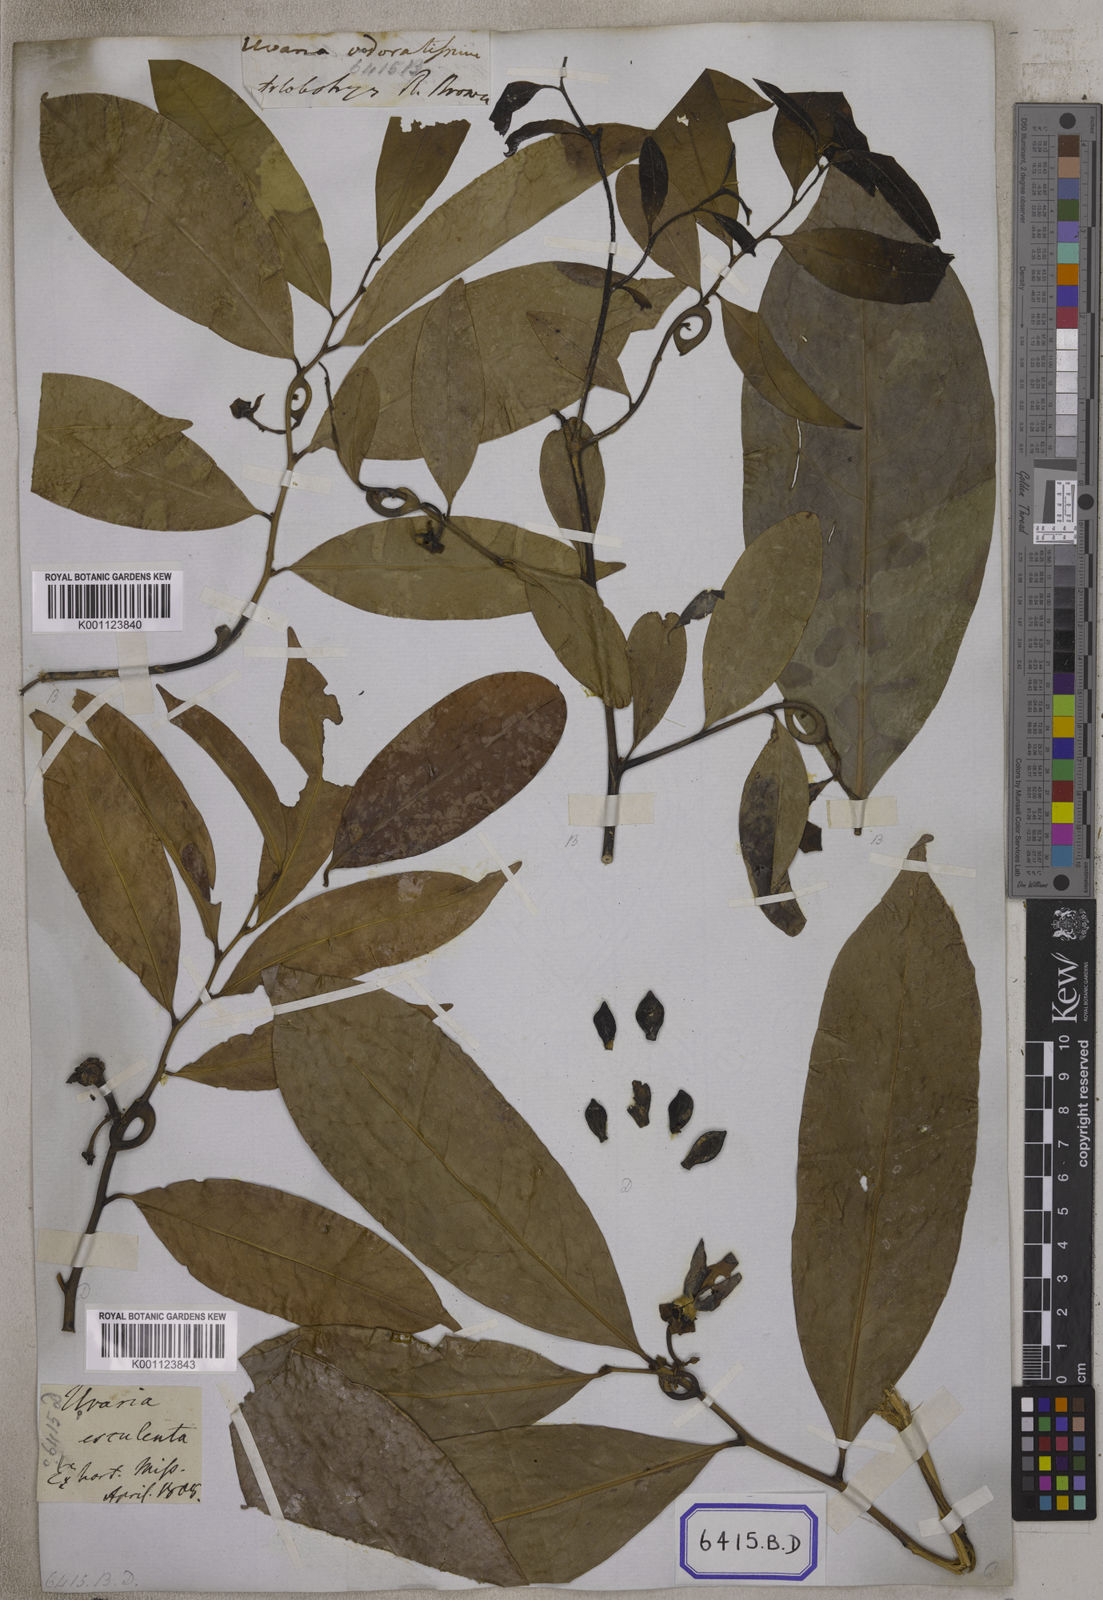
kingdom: Plantae
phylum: Tracheophyta
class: Magnoliopsida
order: Magnoliales
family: Annonaceae
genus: Artabotrys
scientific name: Artabotrys hexapetalus
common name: Climbing ilang-ilang
